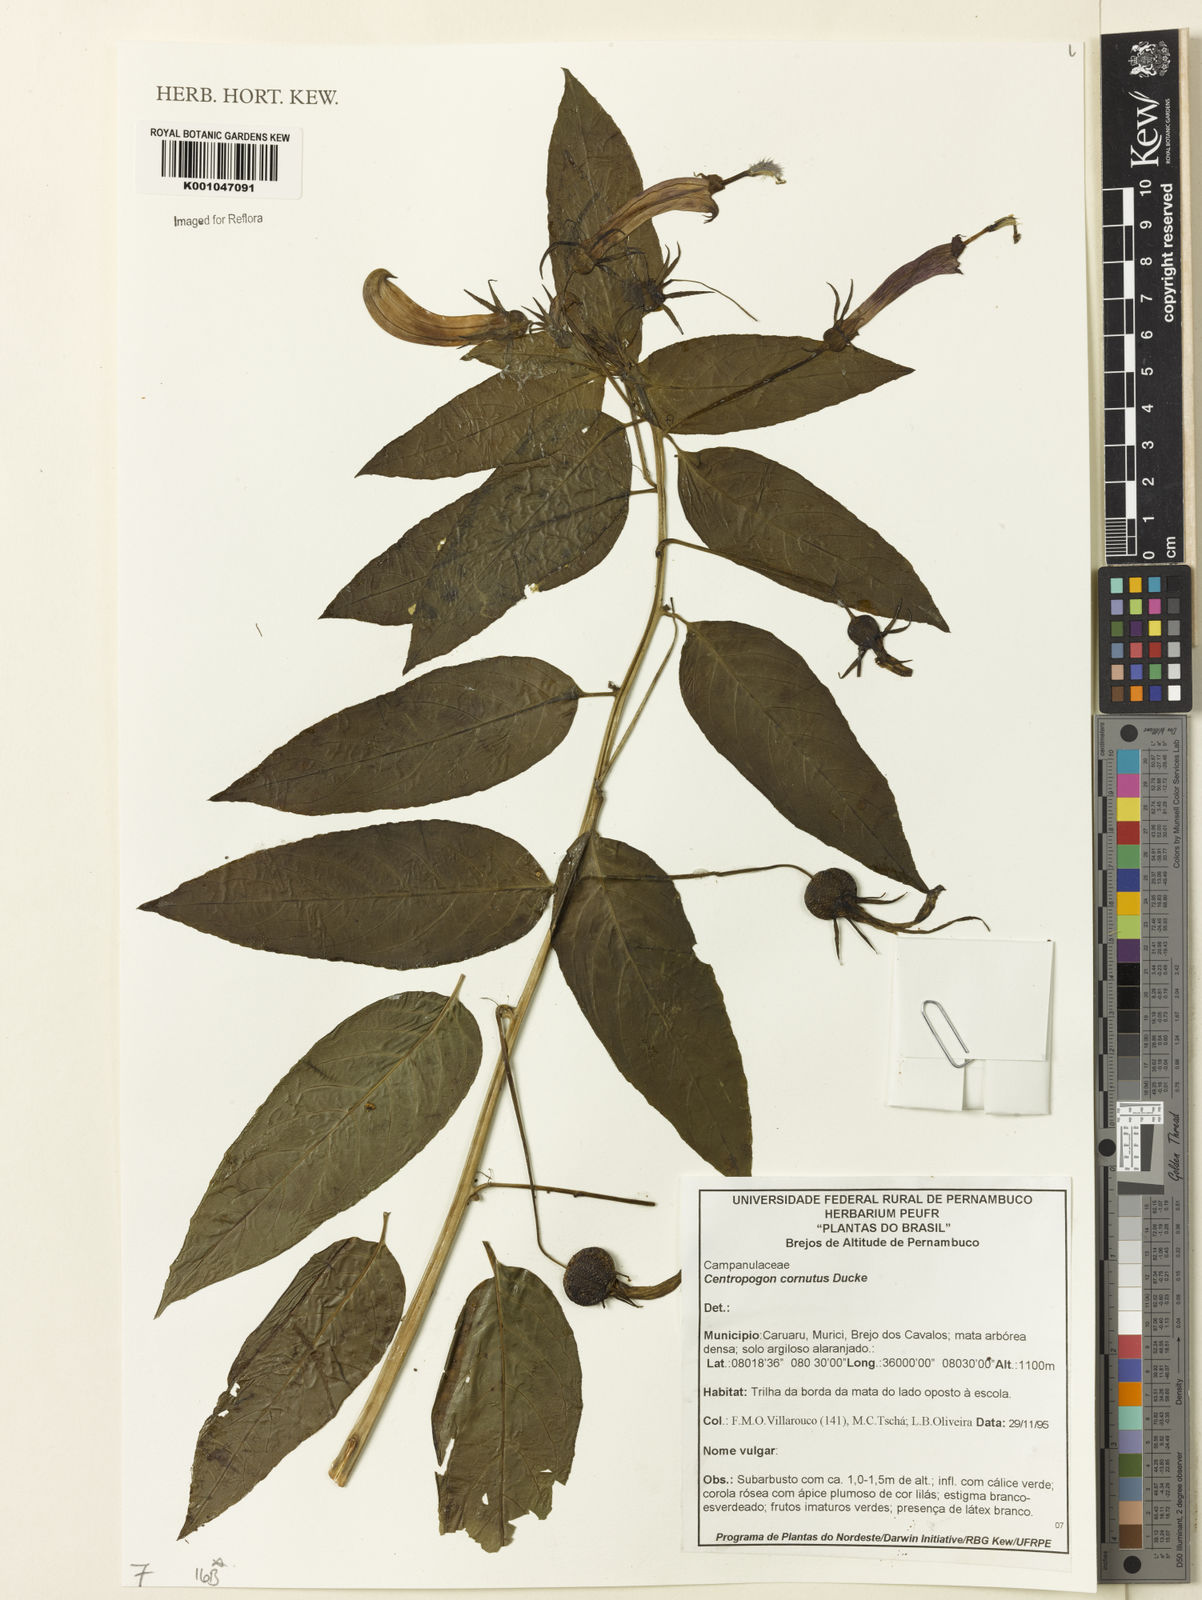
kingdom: Plantae
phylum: Tracheophyta
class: Magnoliopsida
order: Asterales
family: Campanulaceae
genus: Centropogon
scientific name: Centropogon cornutus
